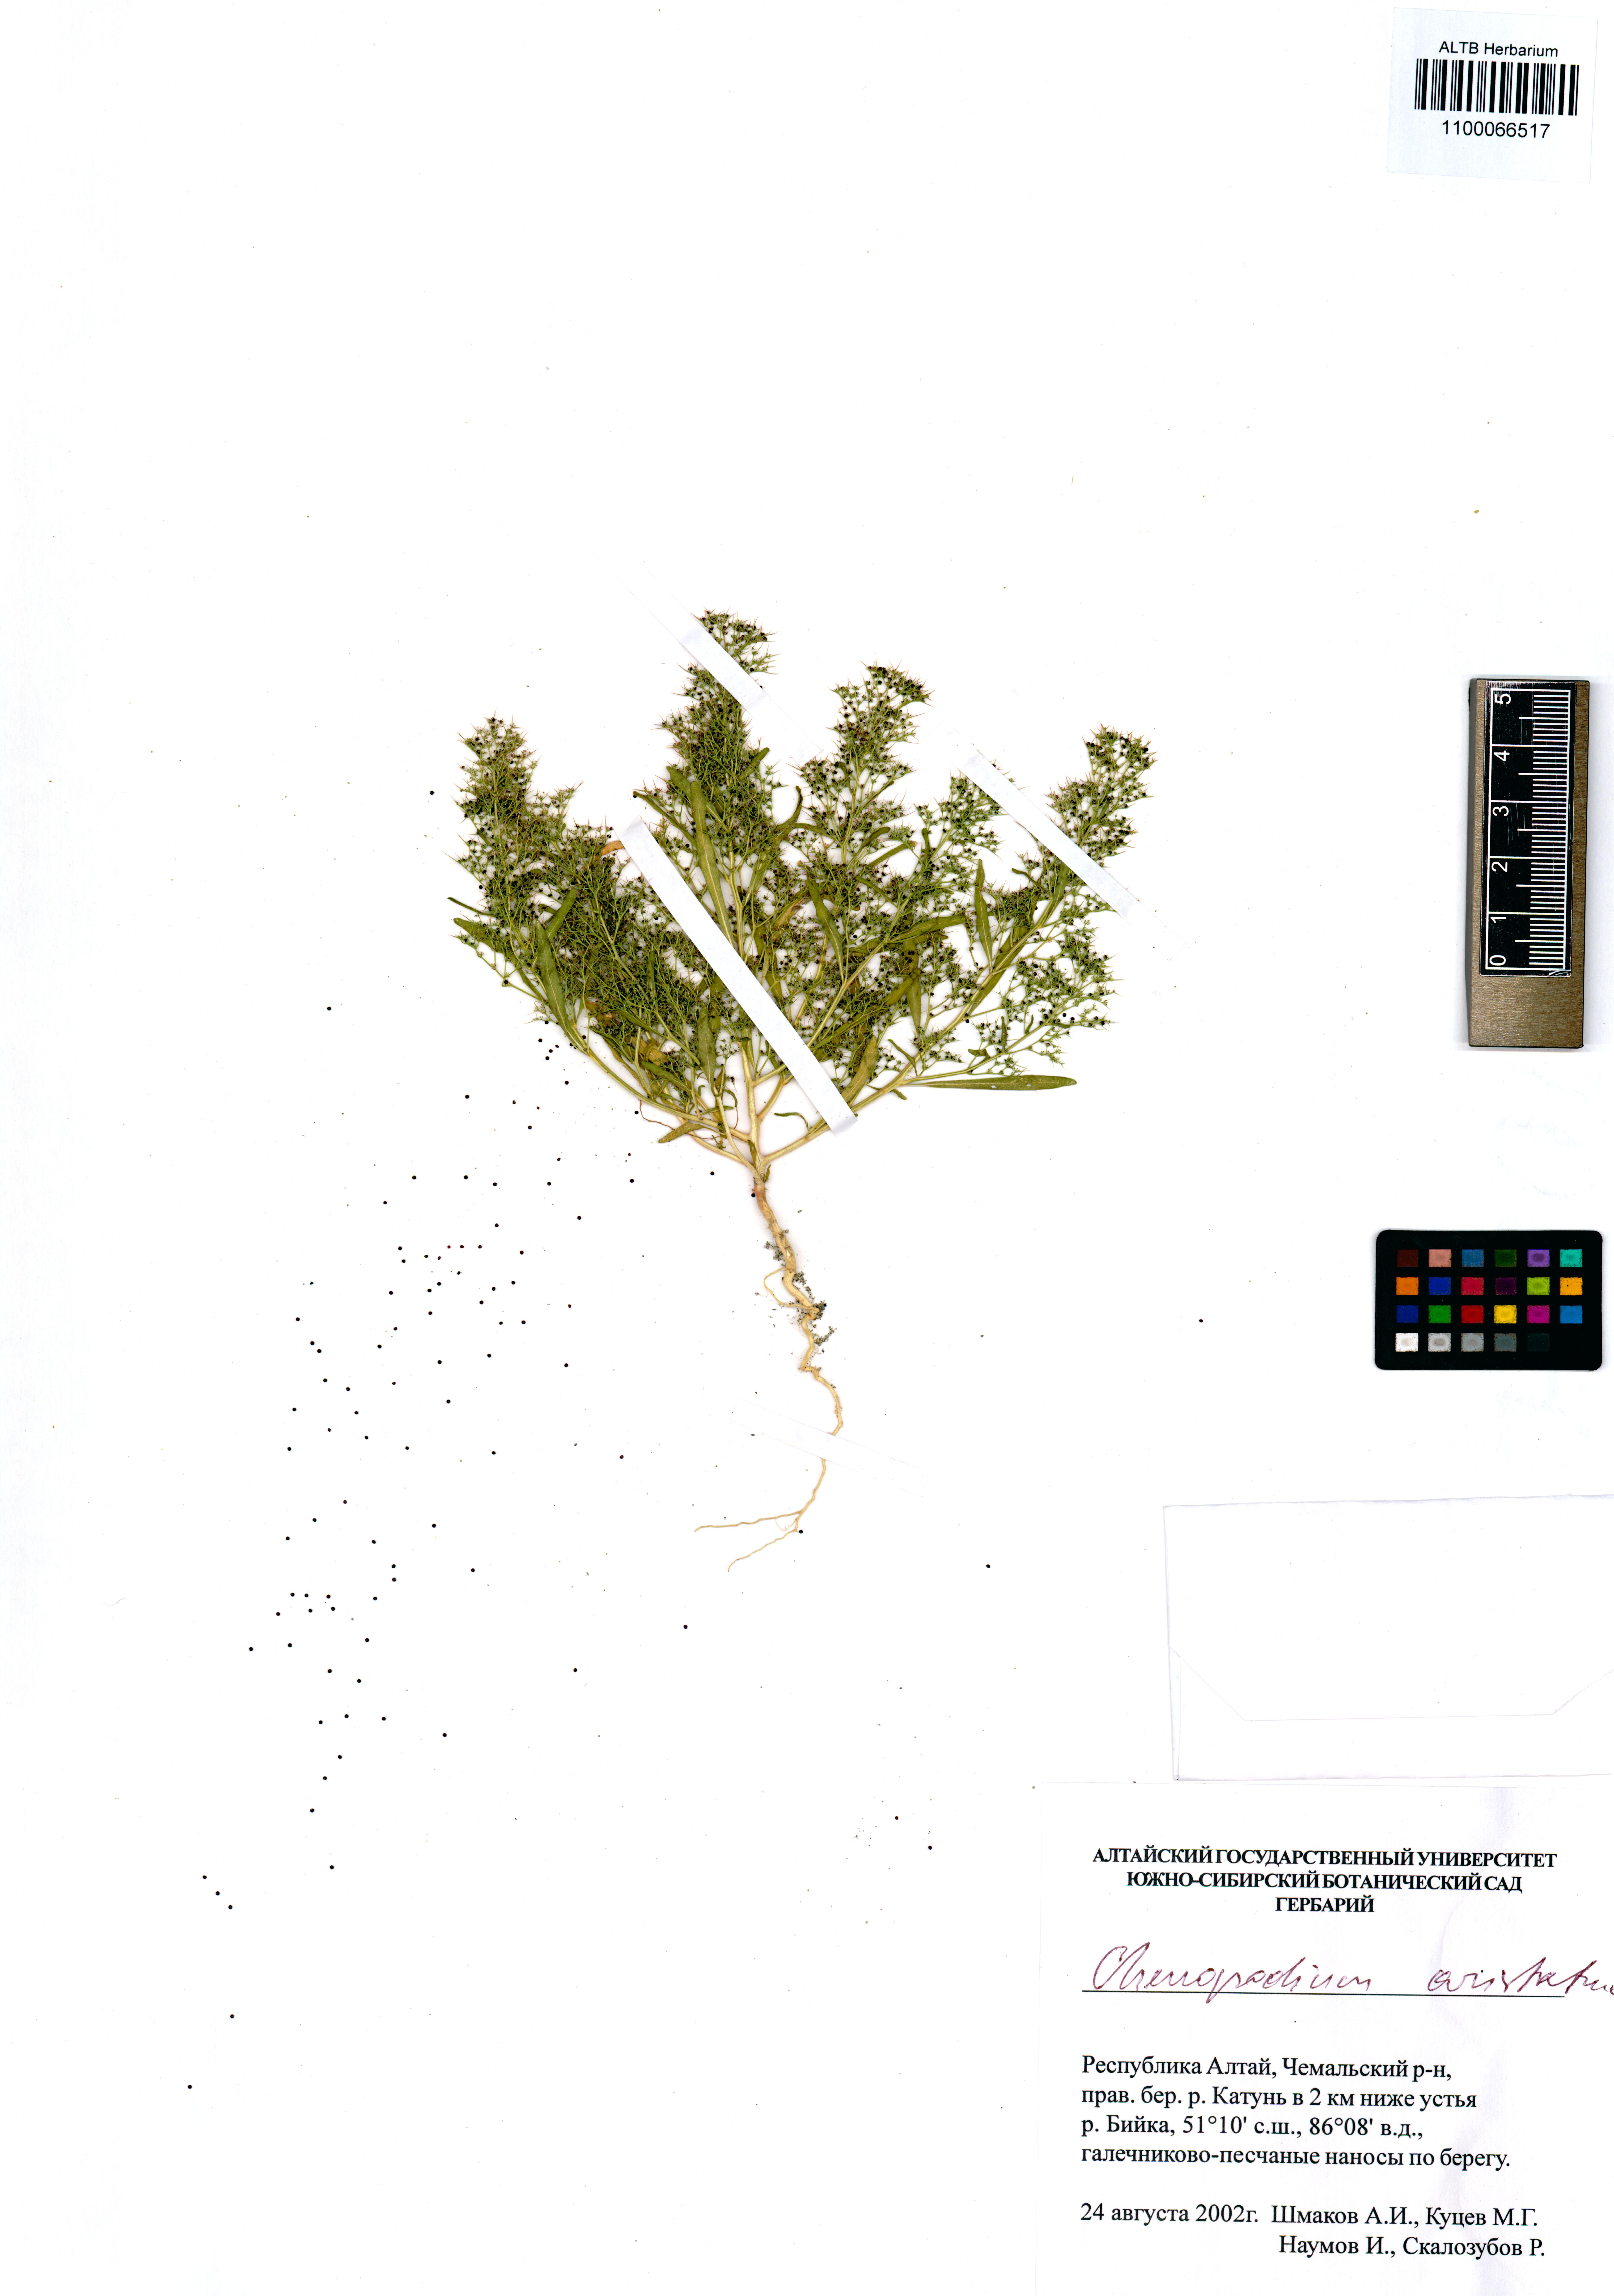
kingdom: Plantae
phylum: Tracheophyta
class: Magnoliopsida
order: Caryophyllales
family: Amaranthaceae
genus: Teloxys
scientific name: Teloxys aristata
